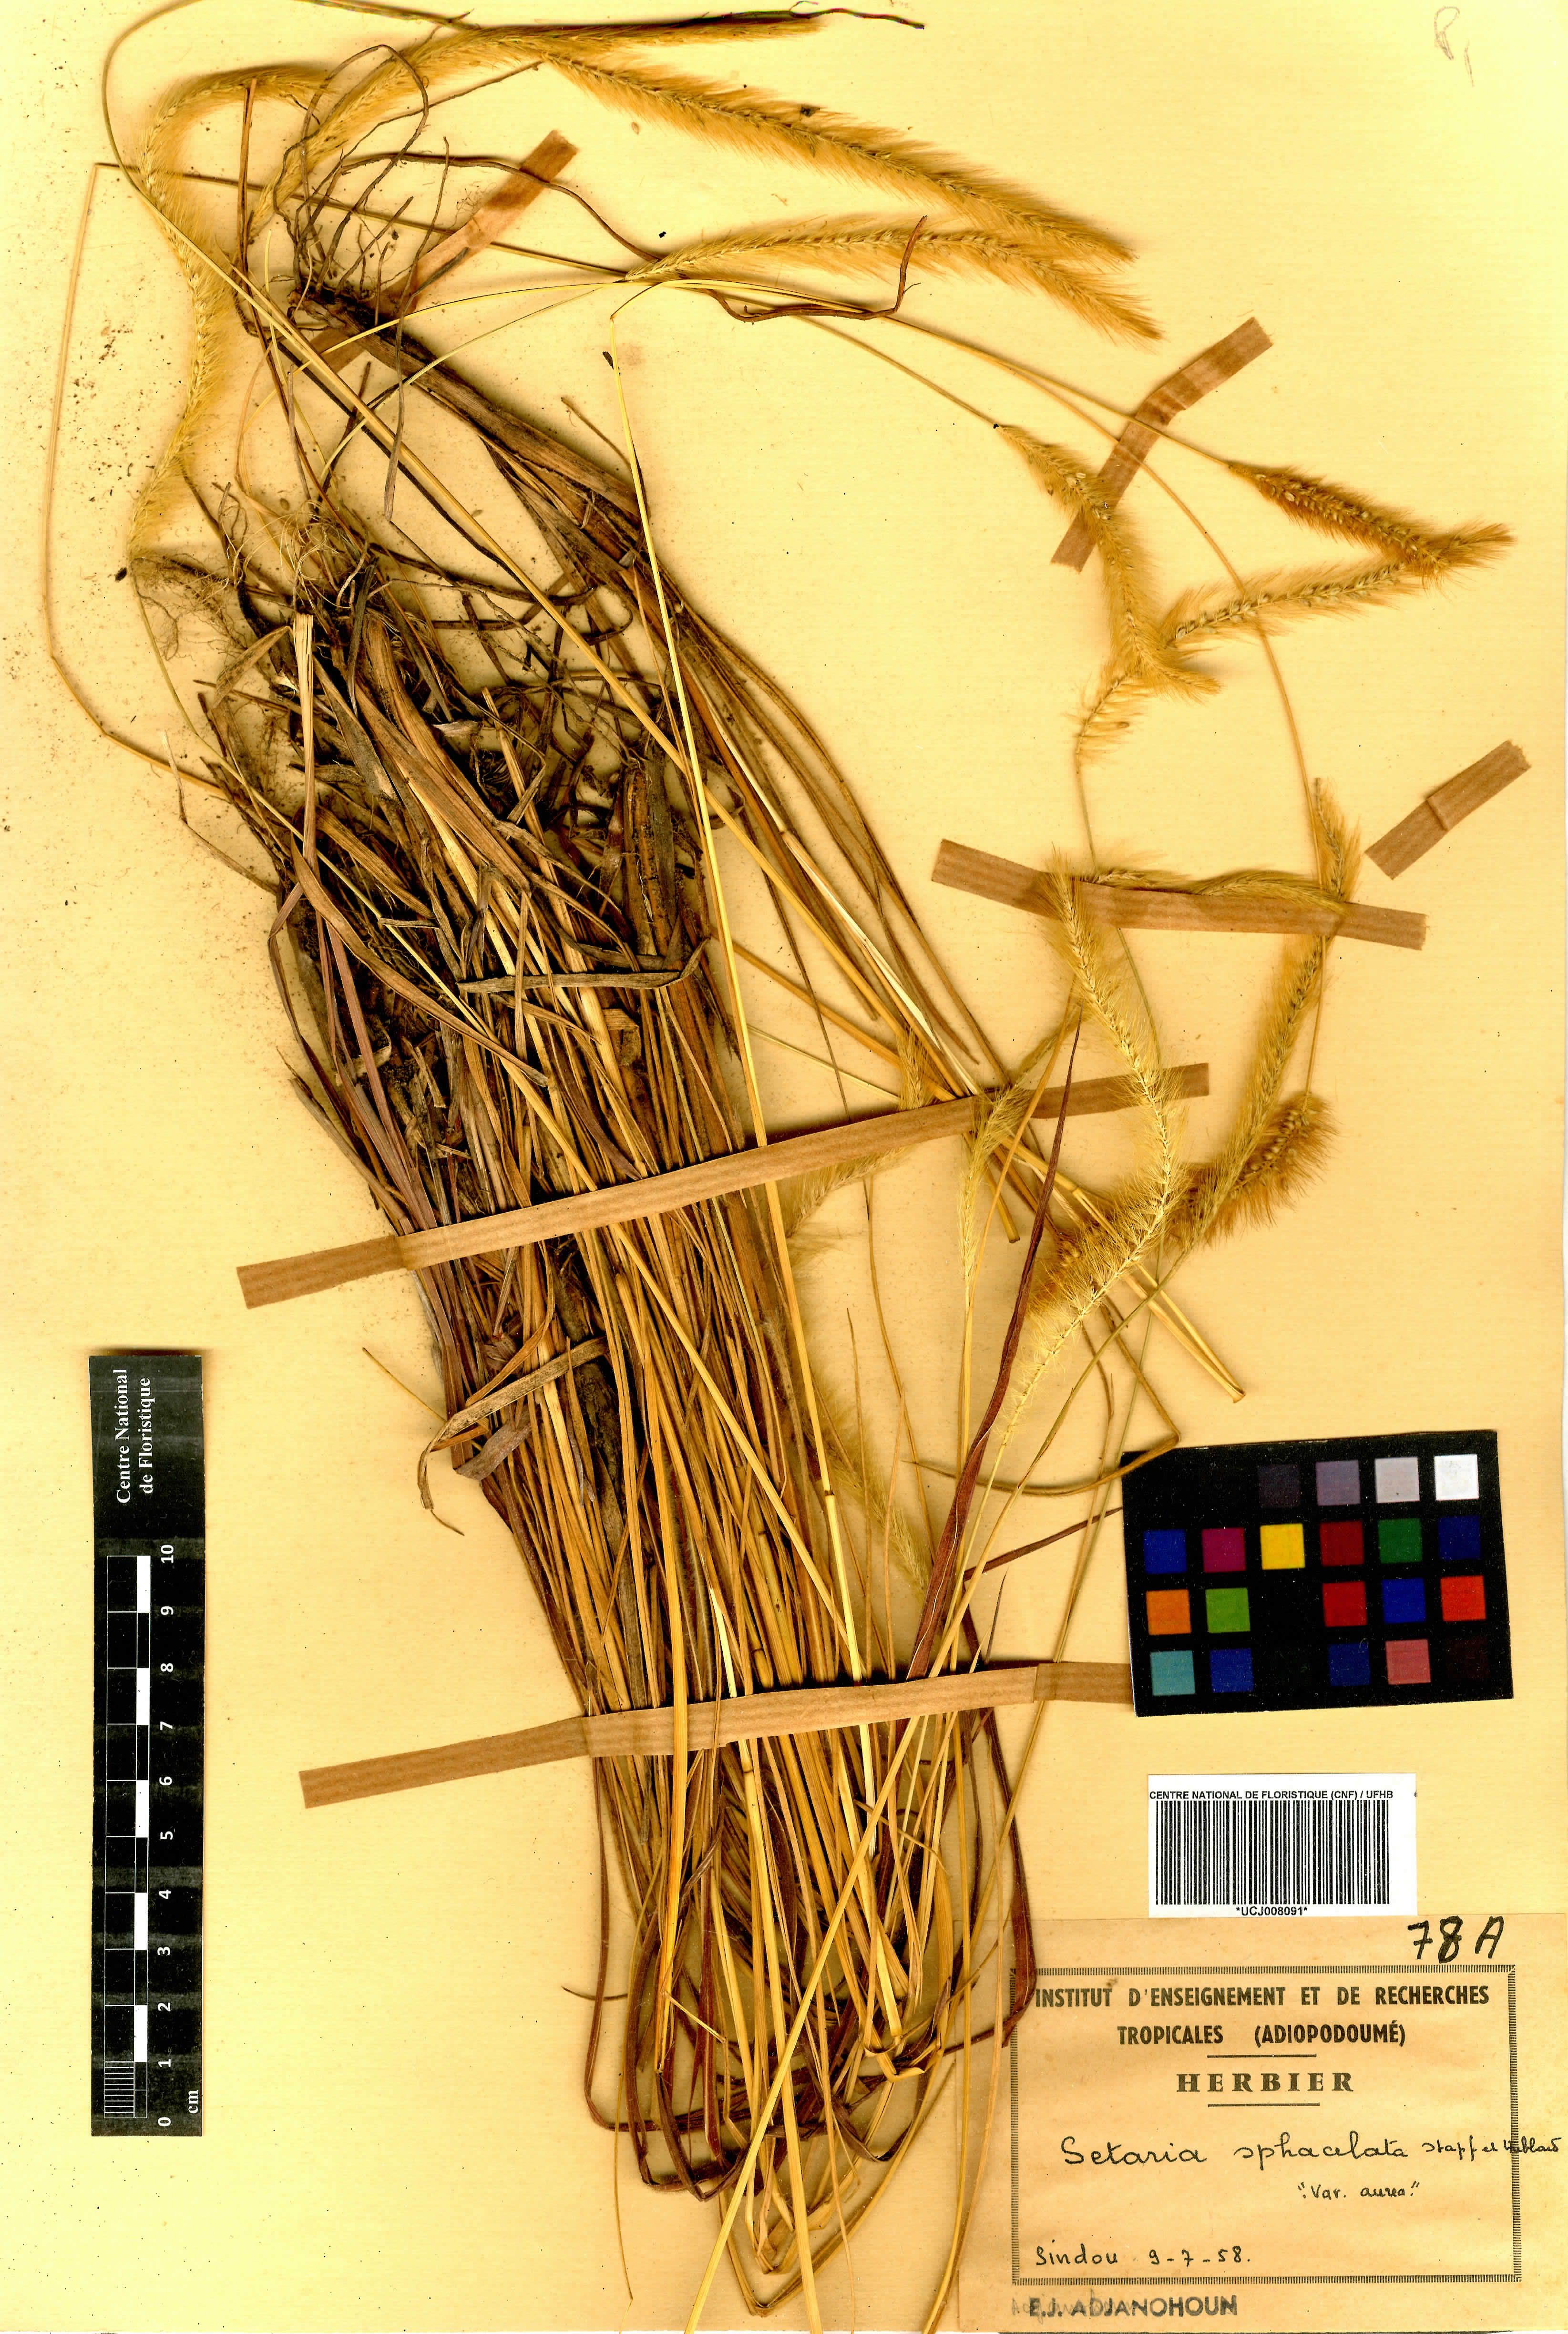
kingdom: Plantae
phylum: Tracheophyta
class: Liliopsida
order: Poales
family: Poaceae
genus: Setaria
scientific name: Setaria sphacelata
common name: African bristlegrass
